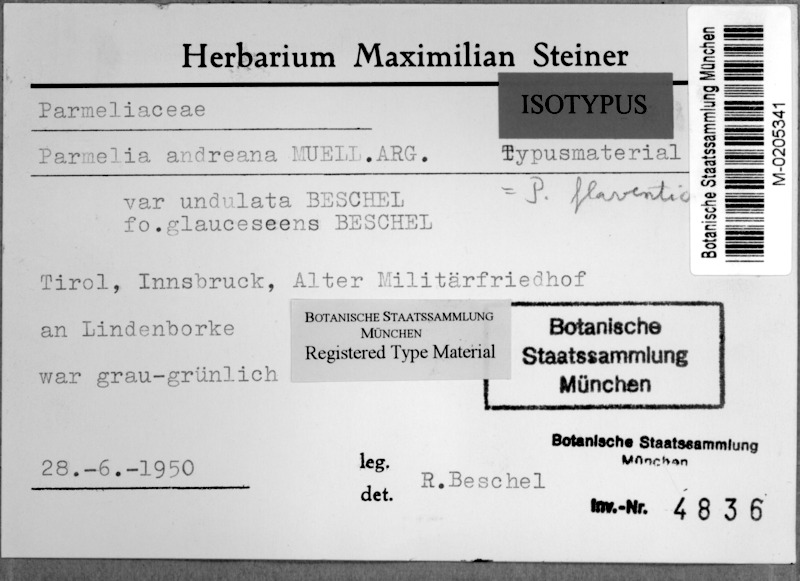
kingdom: Fungi
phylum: Ascomycota
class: Lecanoromycetes
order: Lecanorales
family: Parmeliaceae
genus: Flavopunctelia
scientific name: Flavopunctelia flaventior
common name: Speckled greenshield
